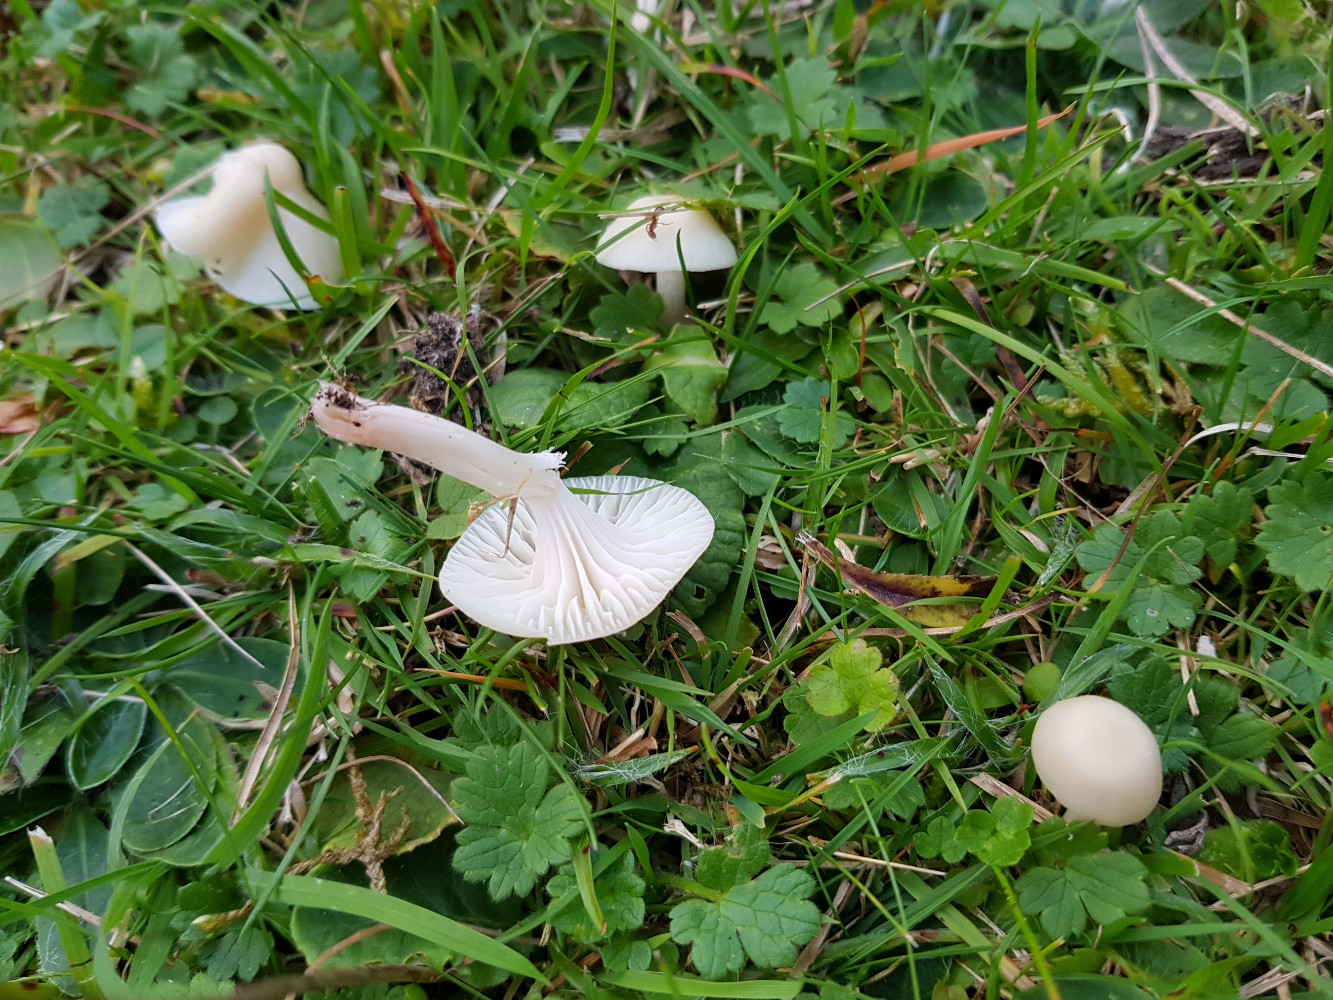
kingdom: Fungi
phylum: Basidiomycota
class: Agaricomycetes
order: Agaricales
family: Hygrophoraceae
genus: Cuphophyllus
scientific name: Cuphophyllus virgineus
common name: snehvid vokshat
